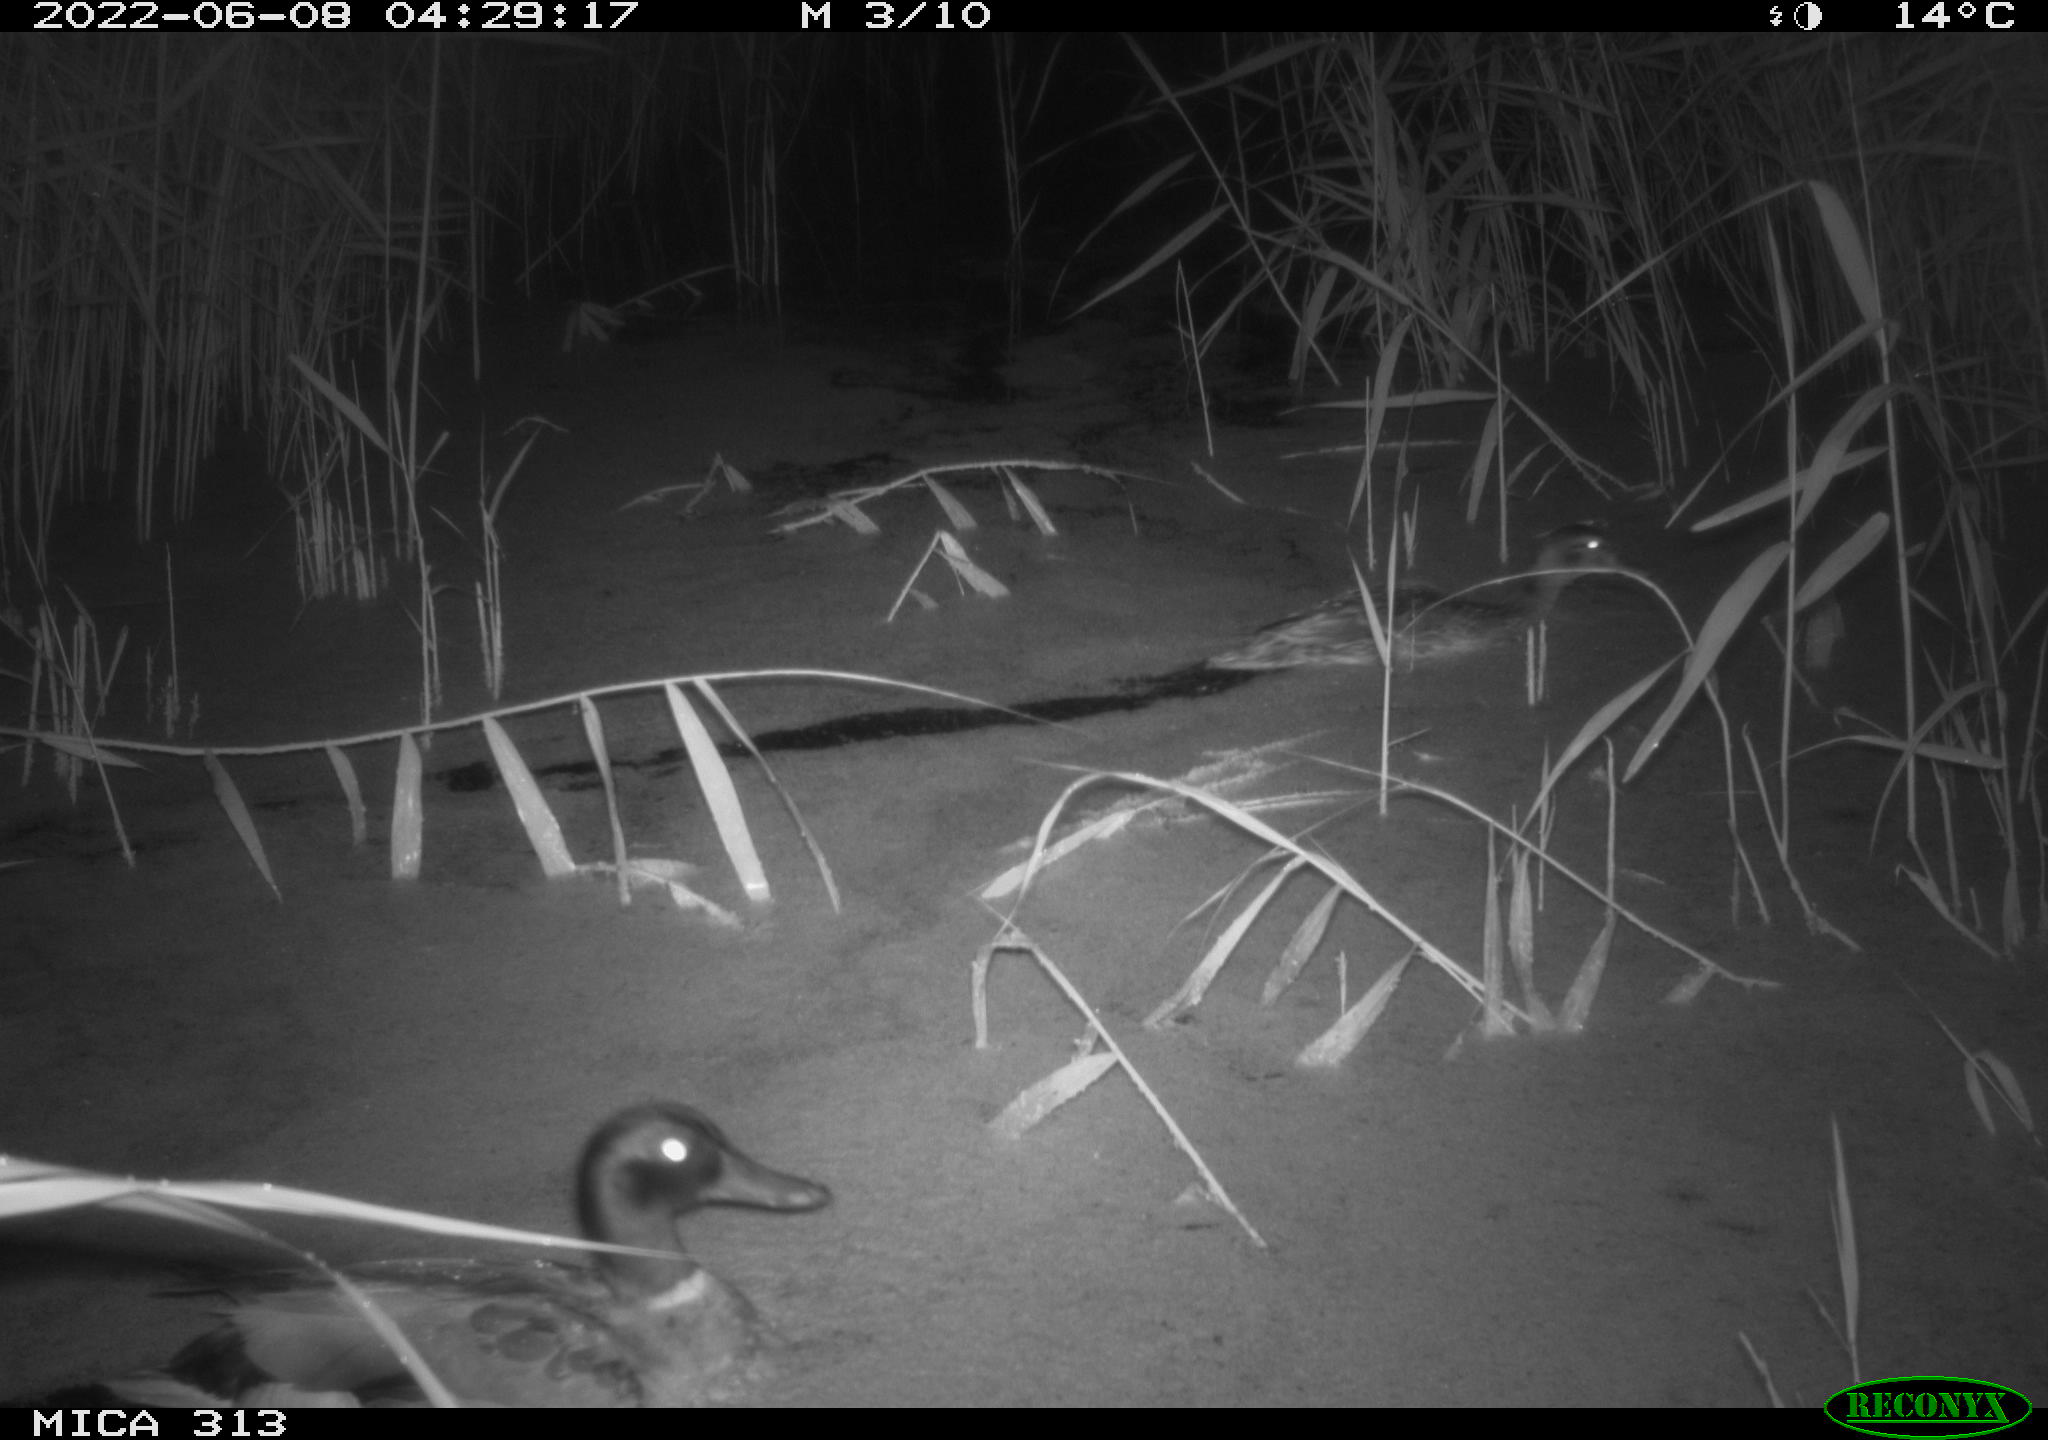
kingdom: Animalia
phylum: Chordata
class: Aves
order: Anseriformes
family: Anatidae
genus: Anas
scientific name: Anas platyrhynchos
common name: Mallard
